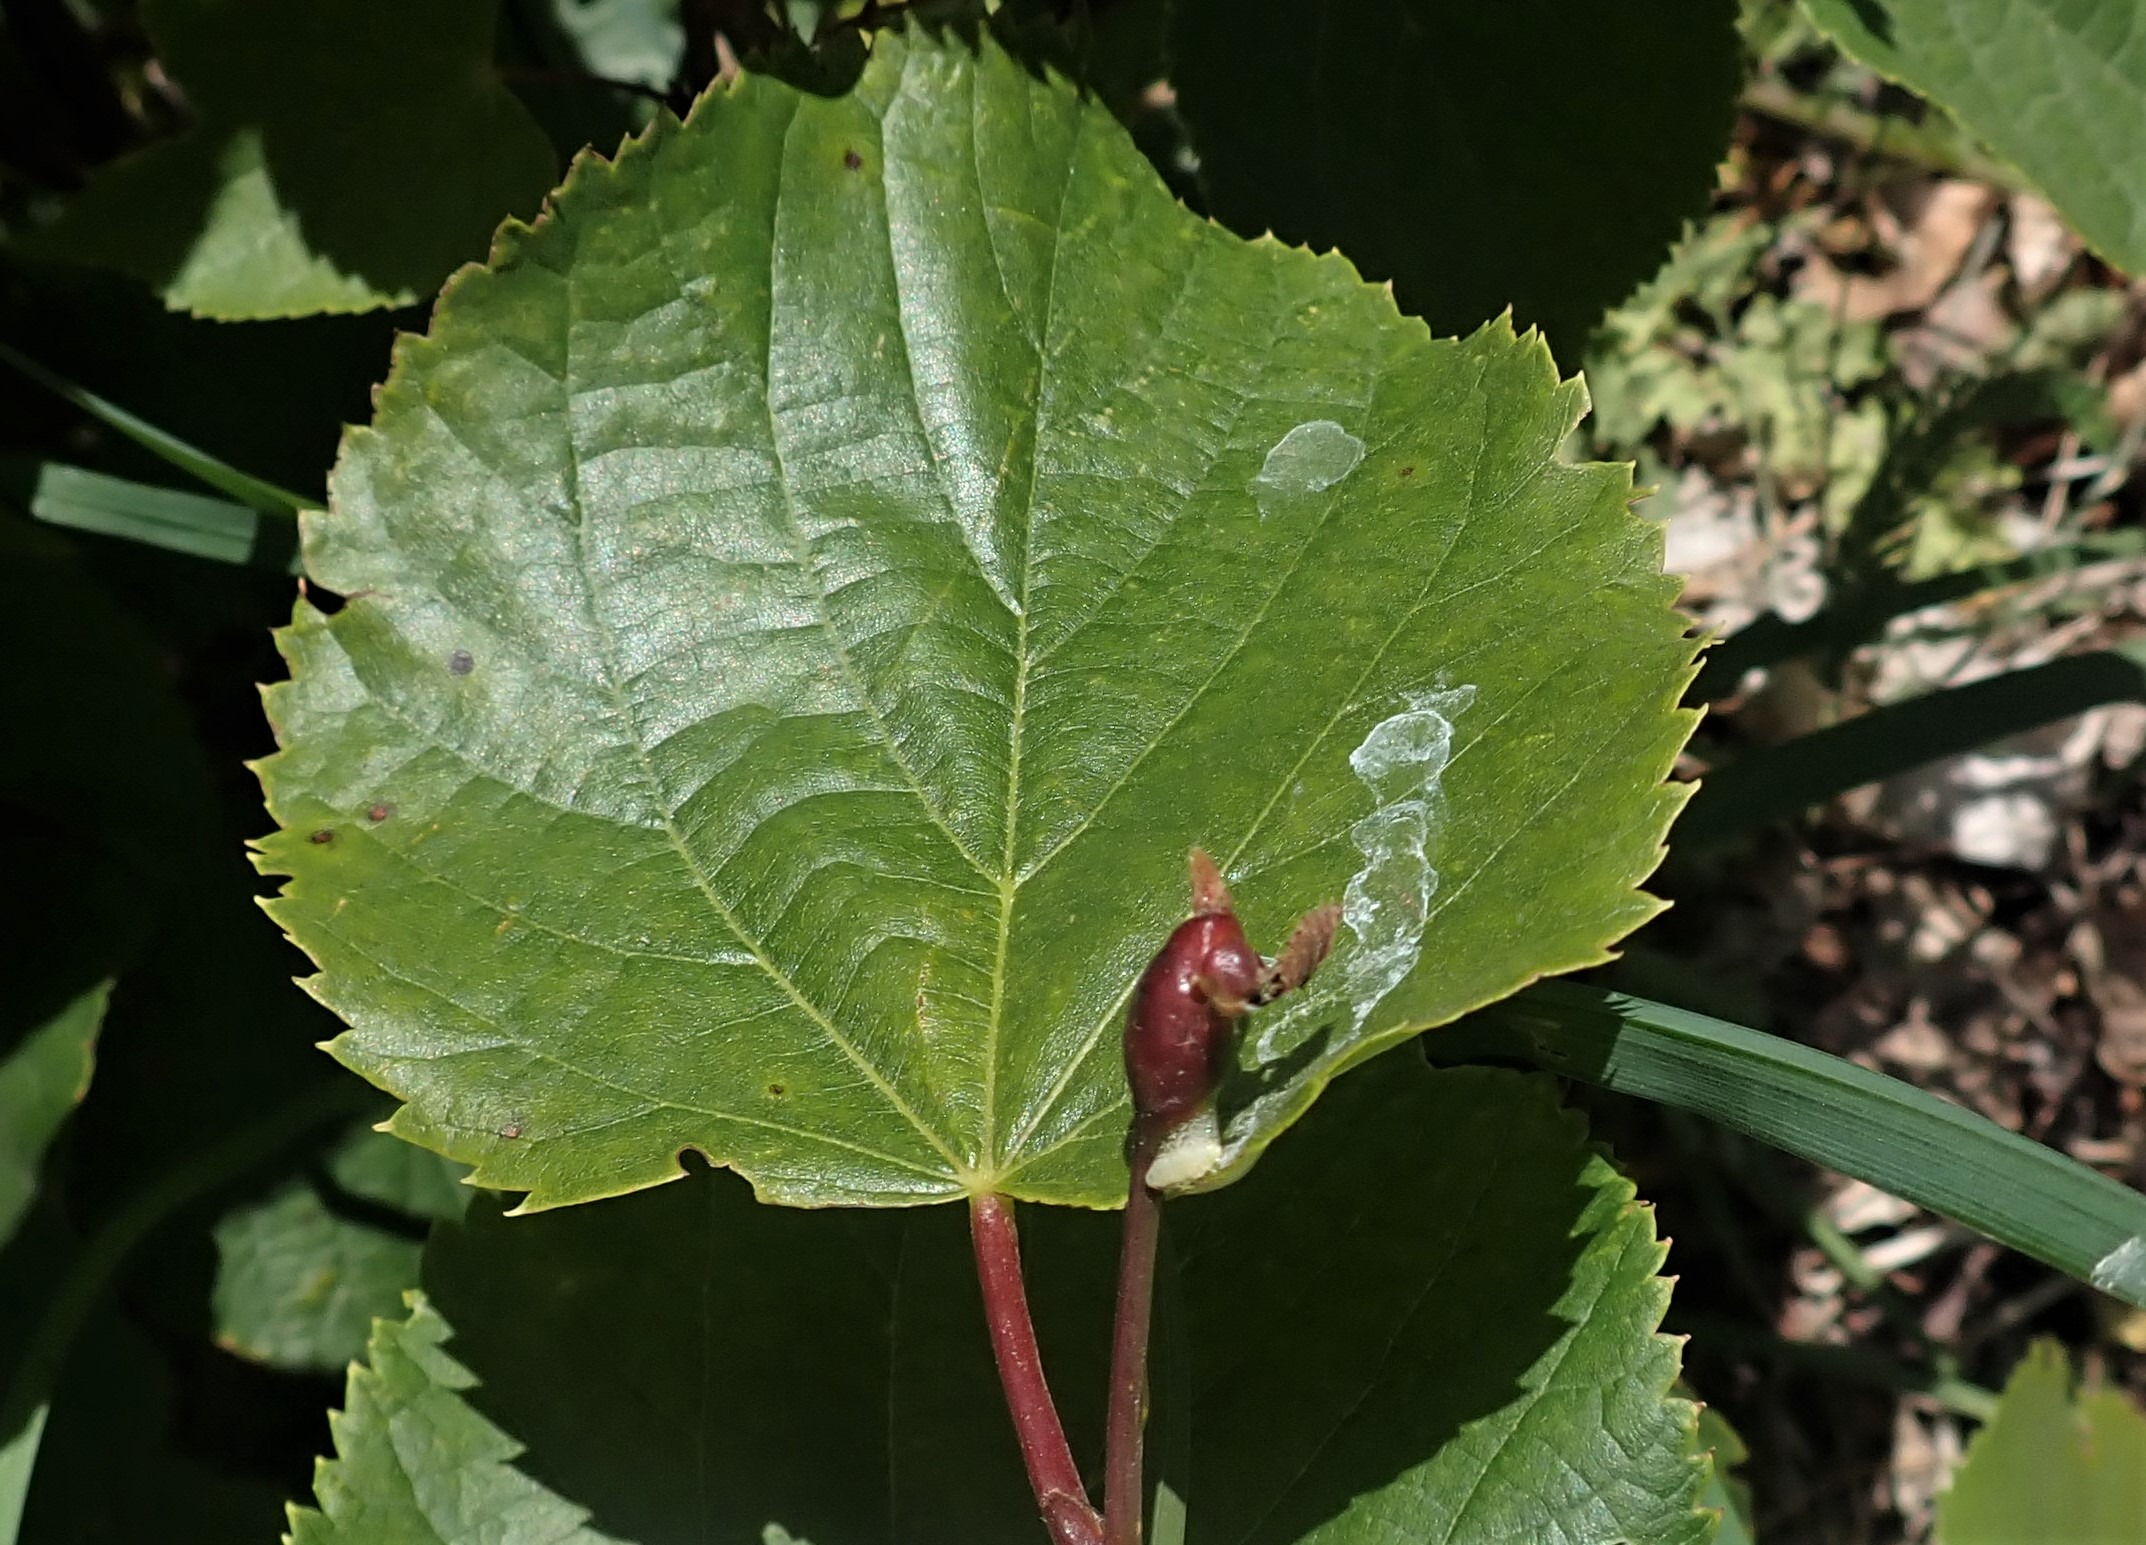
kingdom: Animalia
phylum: Arthropoda
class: Insecta
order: Diptera
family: Cecidomyiidae
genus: Contarinia
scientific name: Contarinia tiliarum
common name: Springende lindegalmyg
